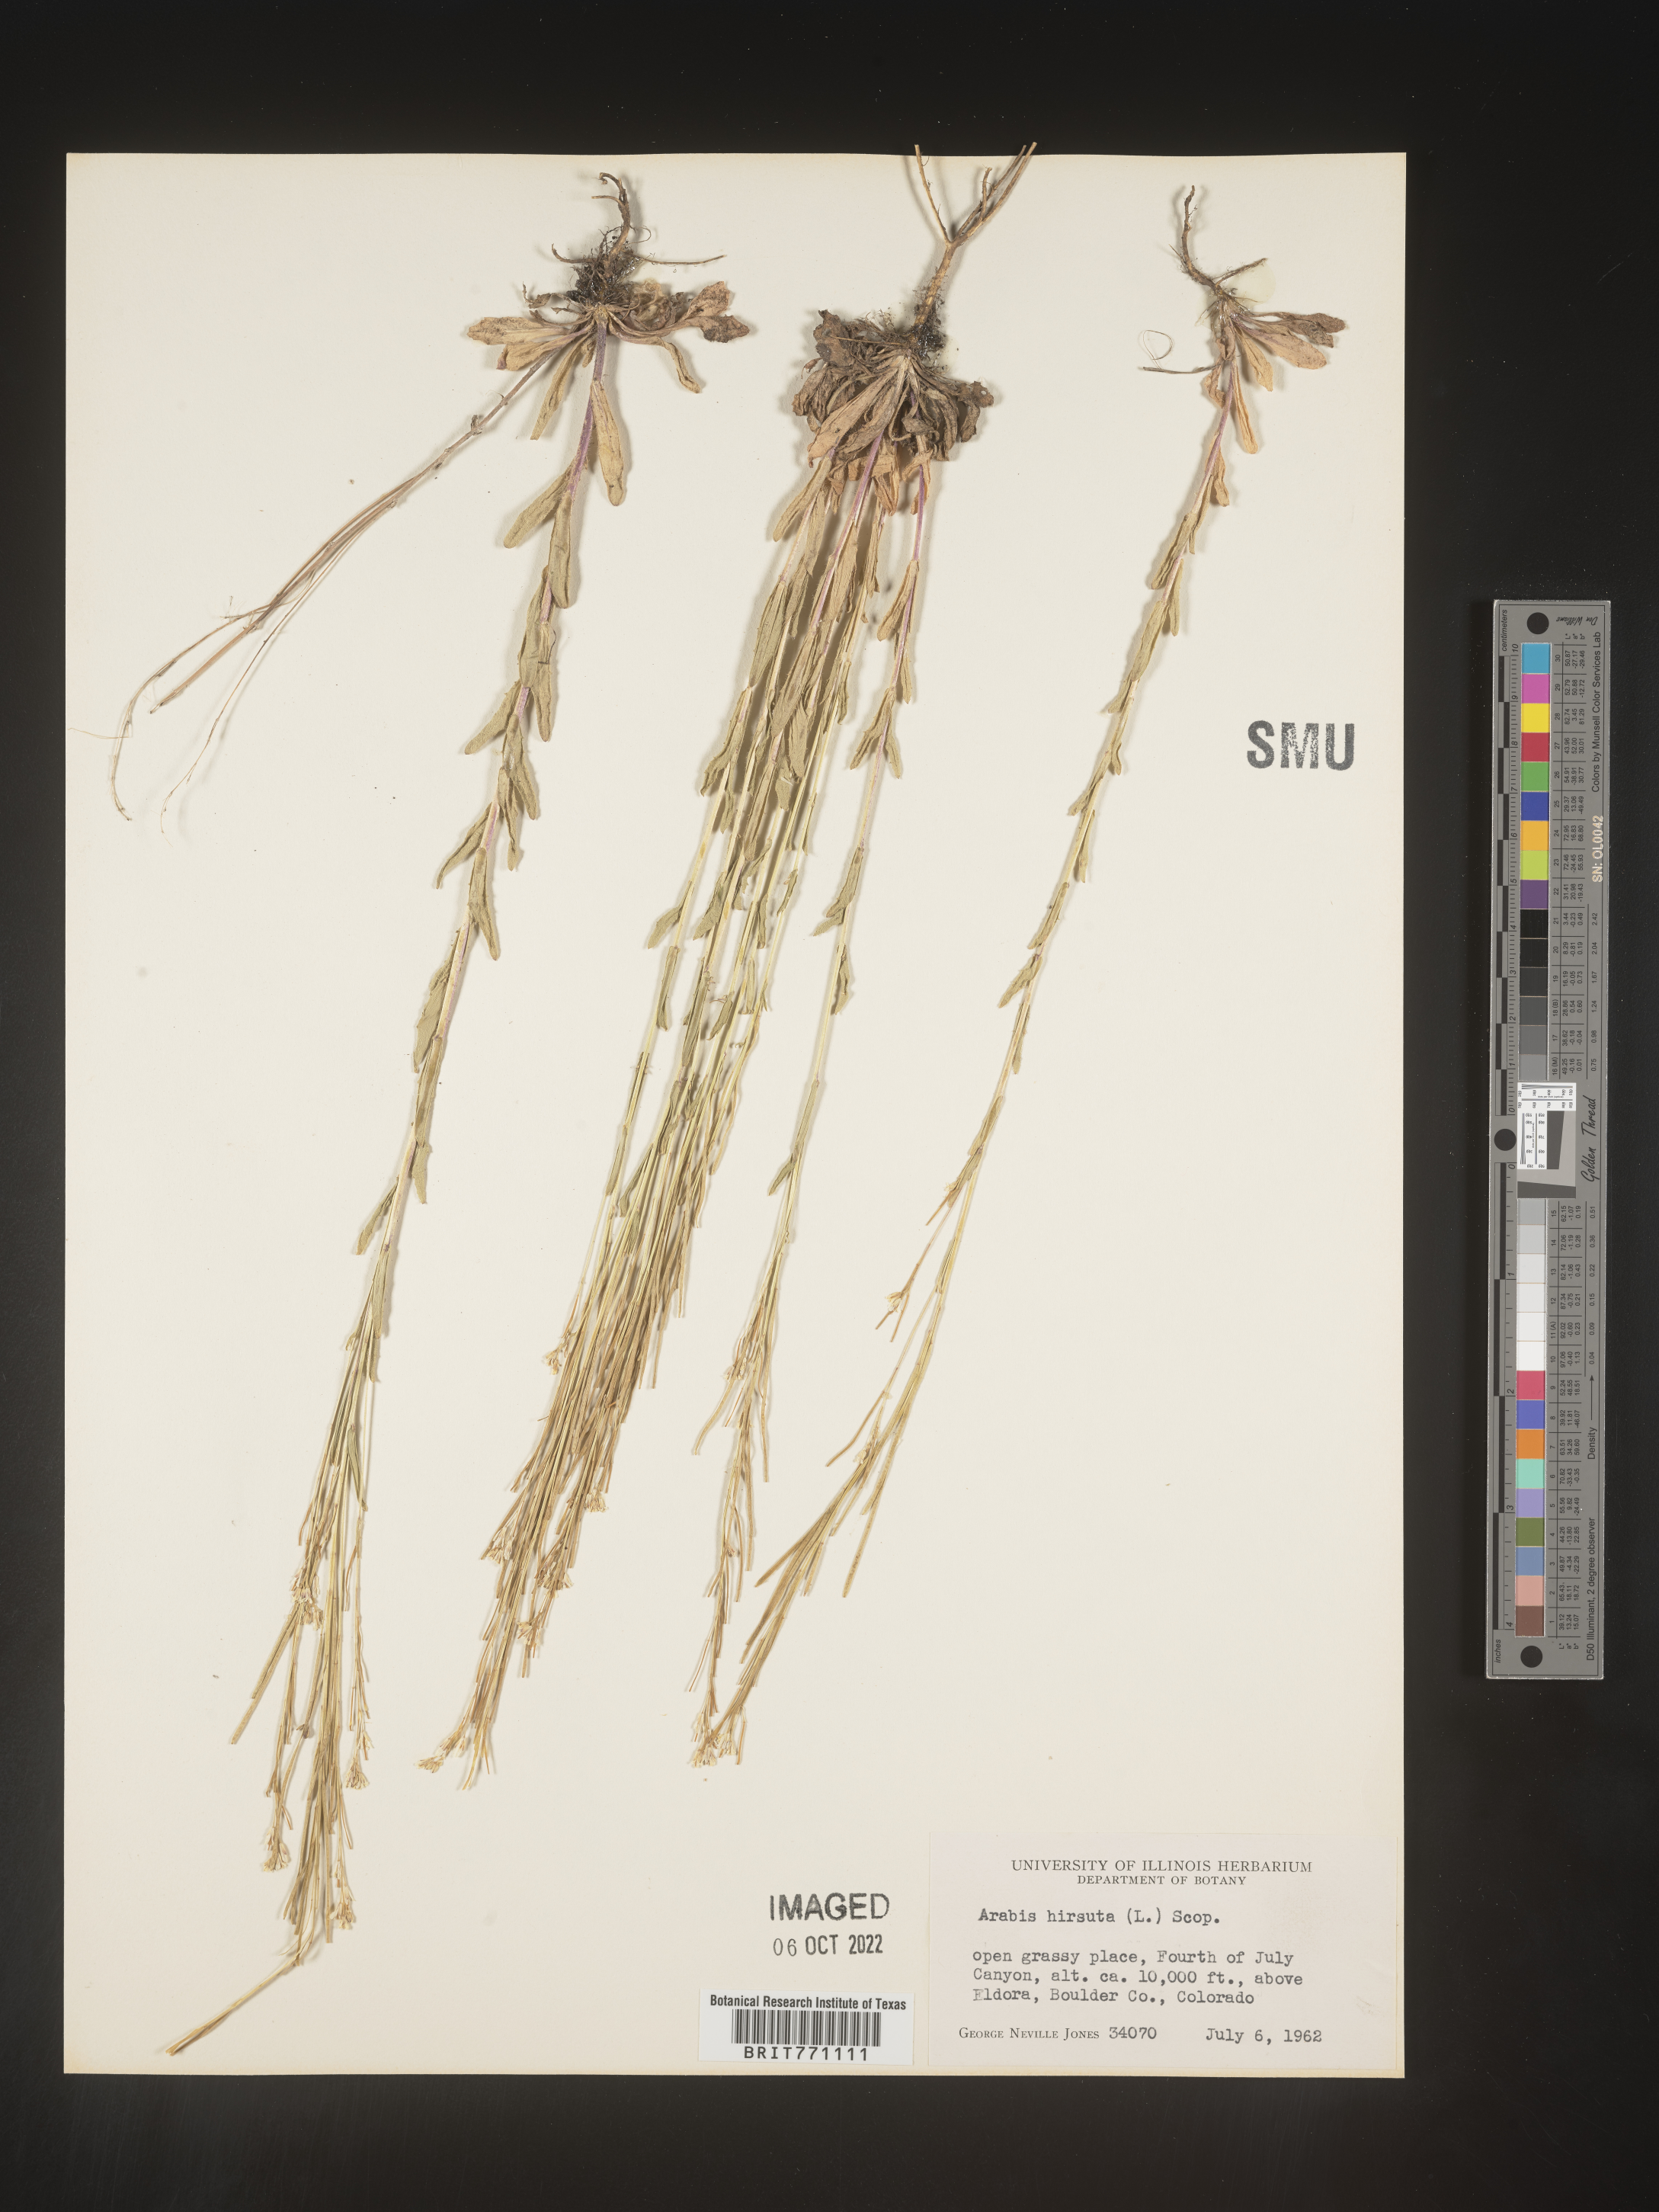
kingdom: Plantae
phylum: Tracheophyta
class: Magnoliopsida
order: Brassicales
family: Brassicaceae
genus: Arabis
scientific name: Arabis hirsuta
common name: Hairy rock-cress
